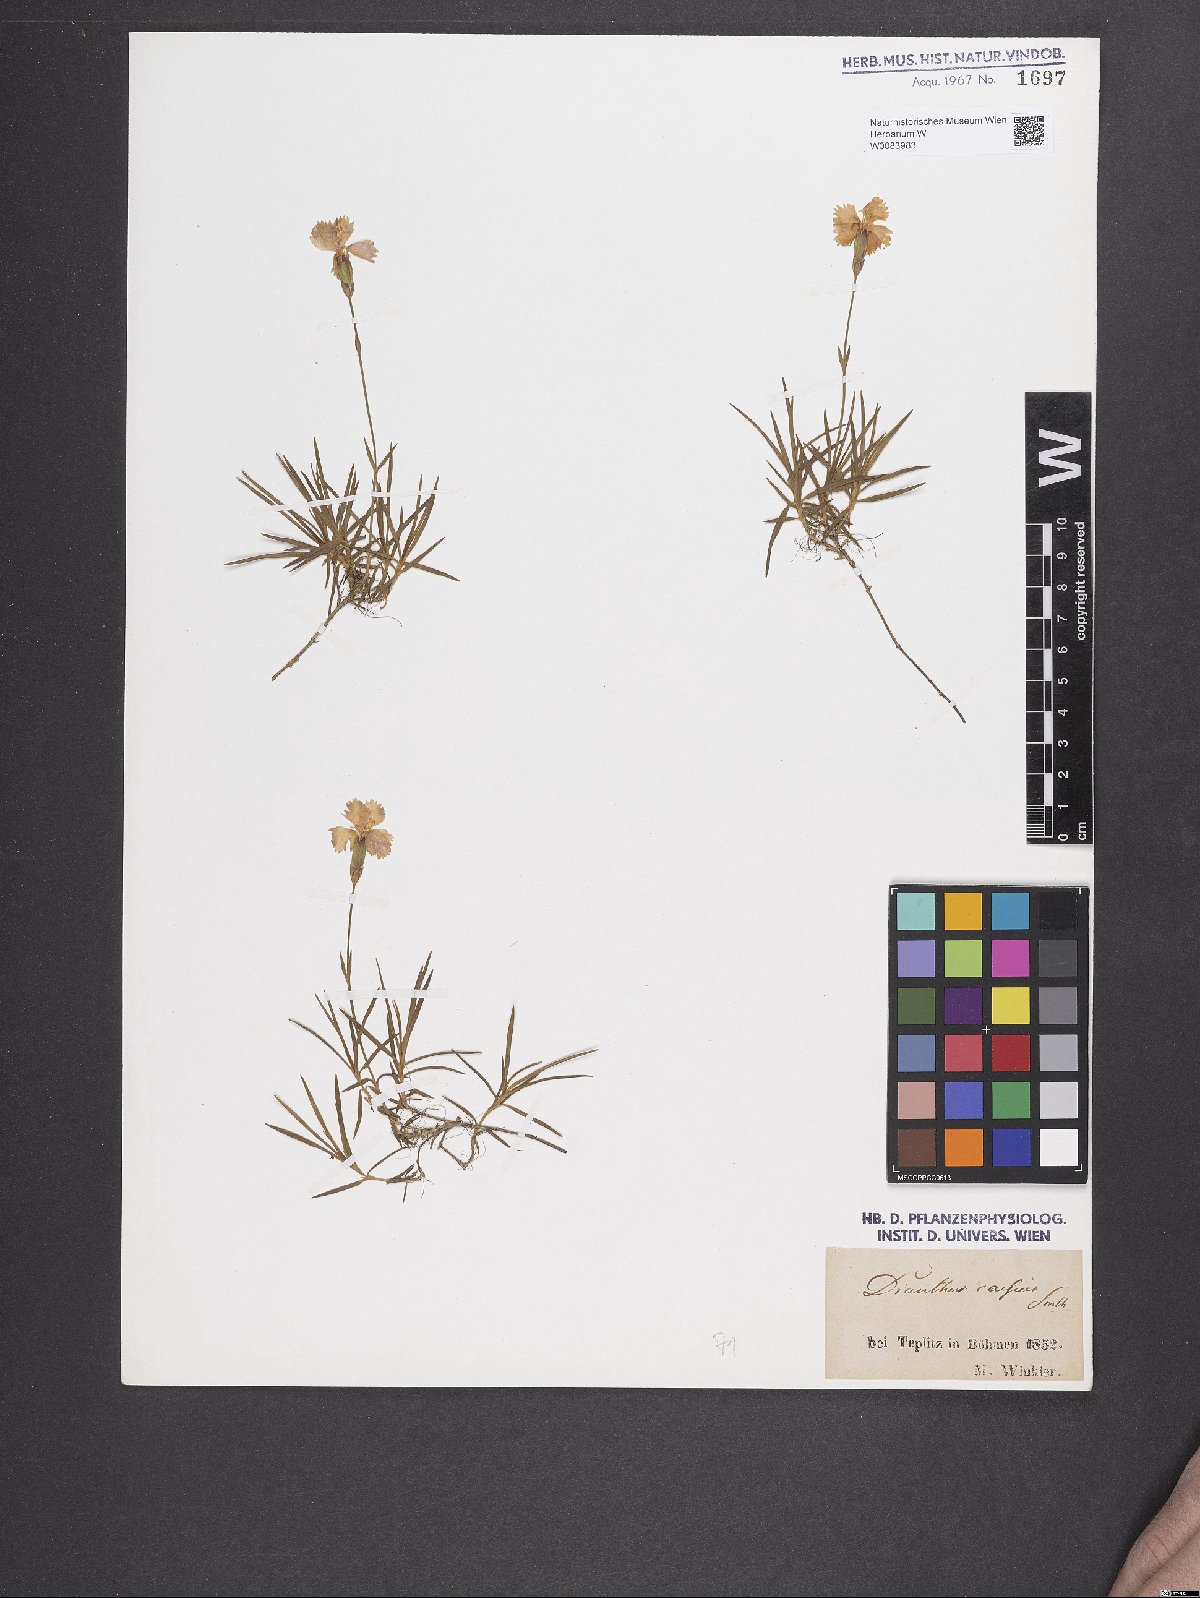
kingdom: Plantae
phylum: Tracheophyta
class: Magnoliopsida
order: Caryophyllales
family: Caryophyllaceae
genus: Dianthus
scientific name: Dianthus gratianopolitanus
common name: Cheddar pink
